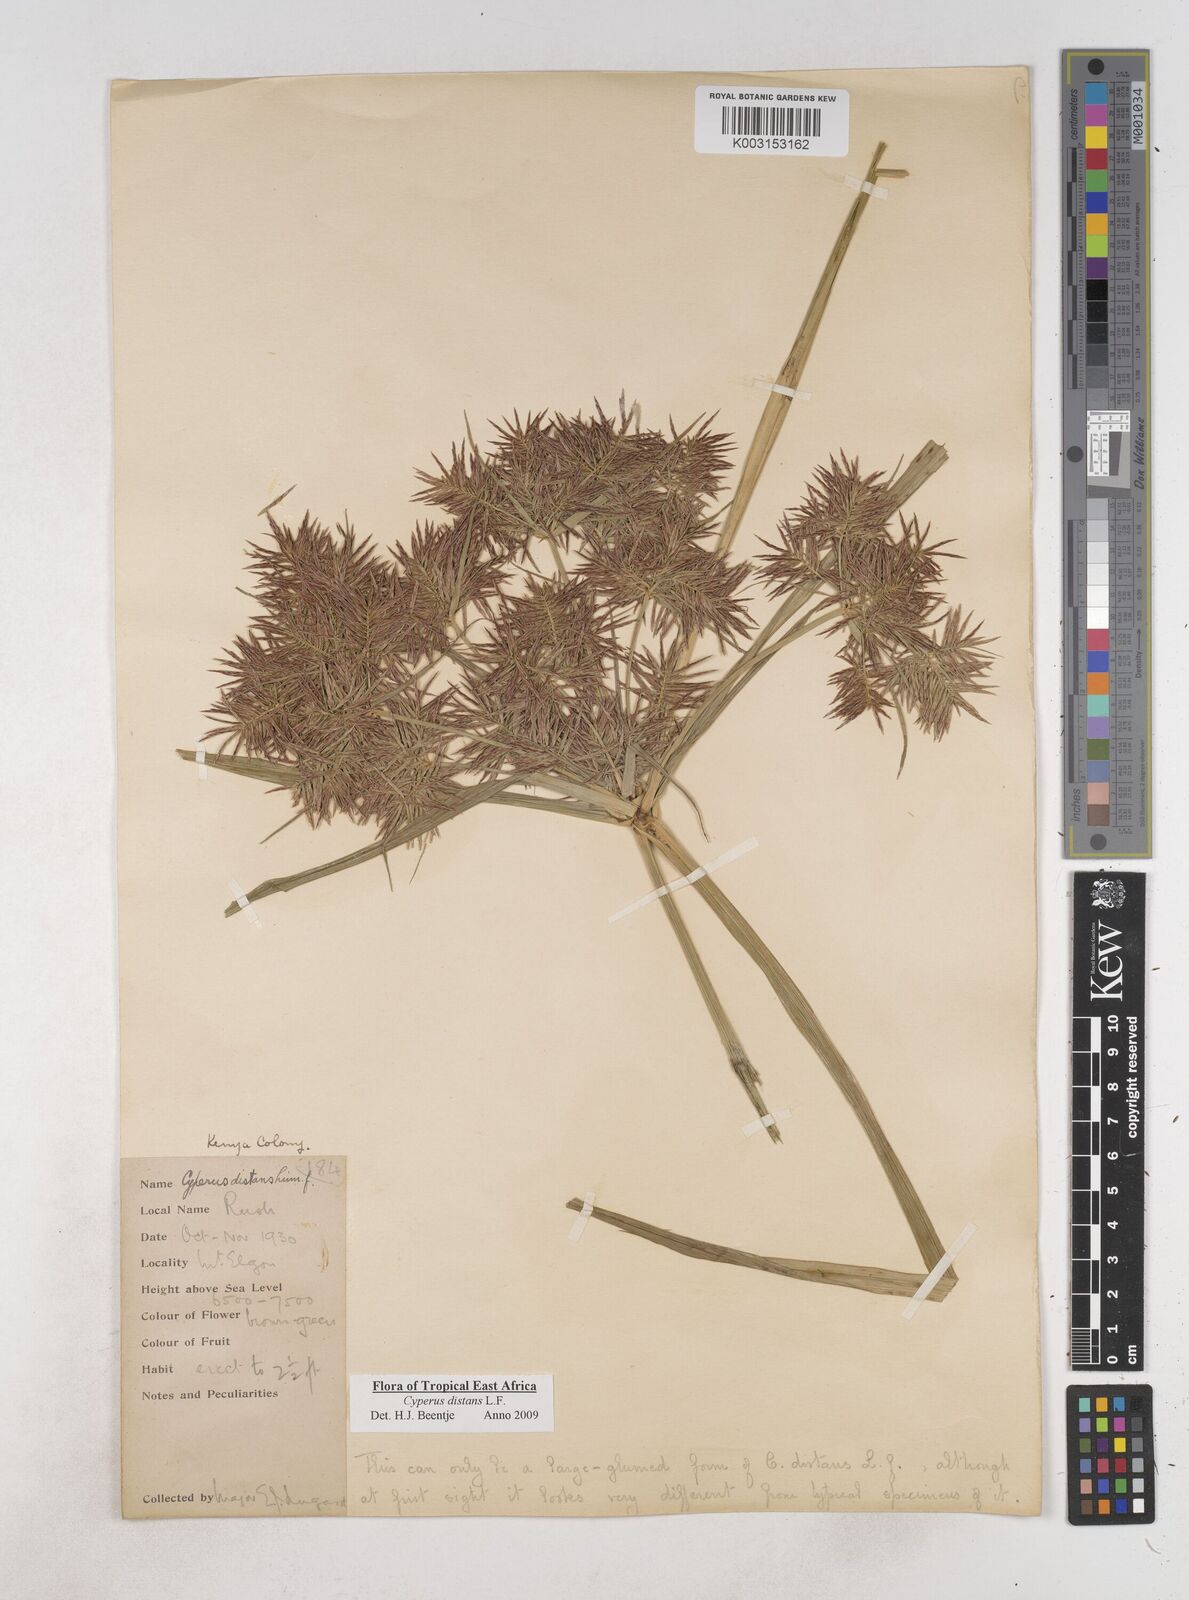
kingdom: Plantae
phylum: Tracheophyta
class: Liliopsida
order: Poales
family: Cyperaceae
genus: Cyperus
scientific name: Cyperus distans
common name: Slender cyperus
